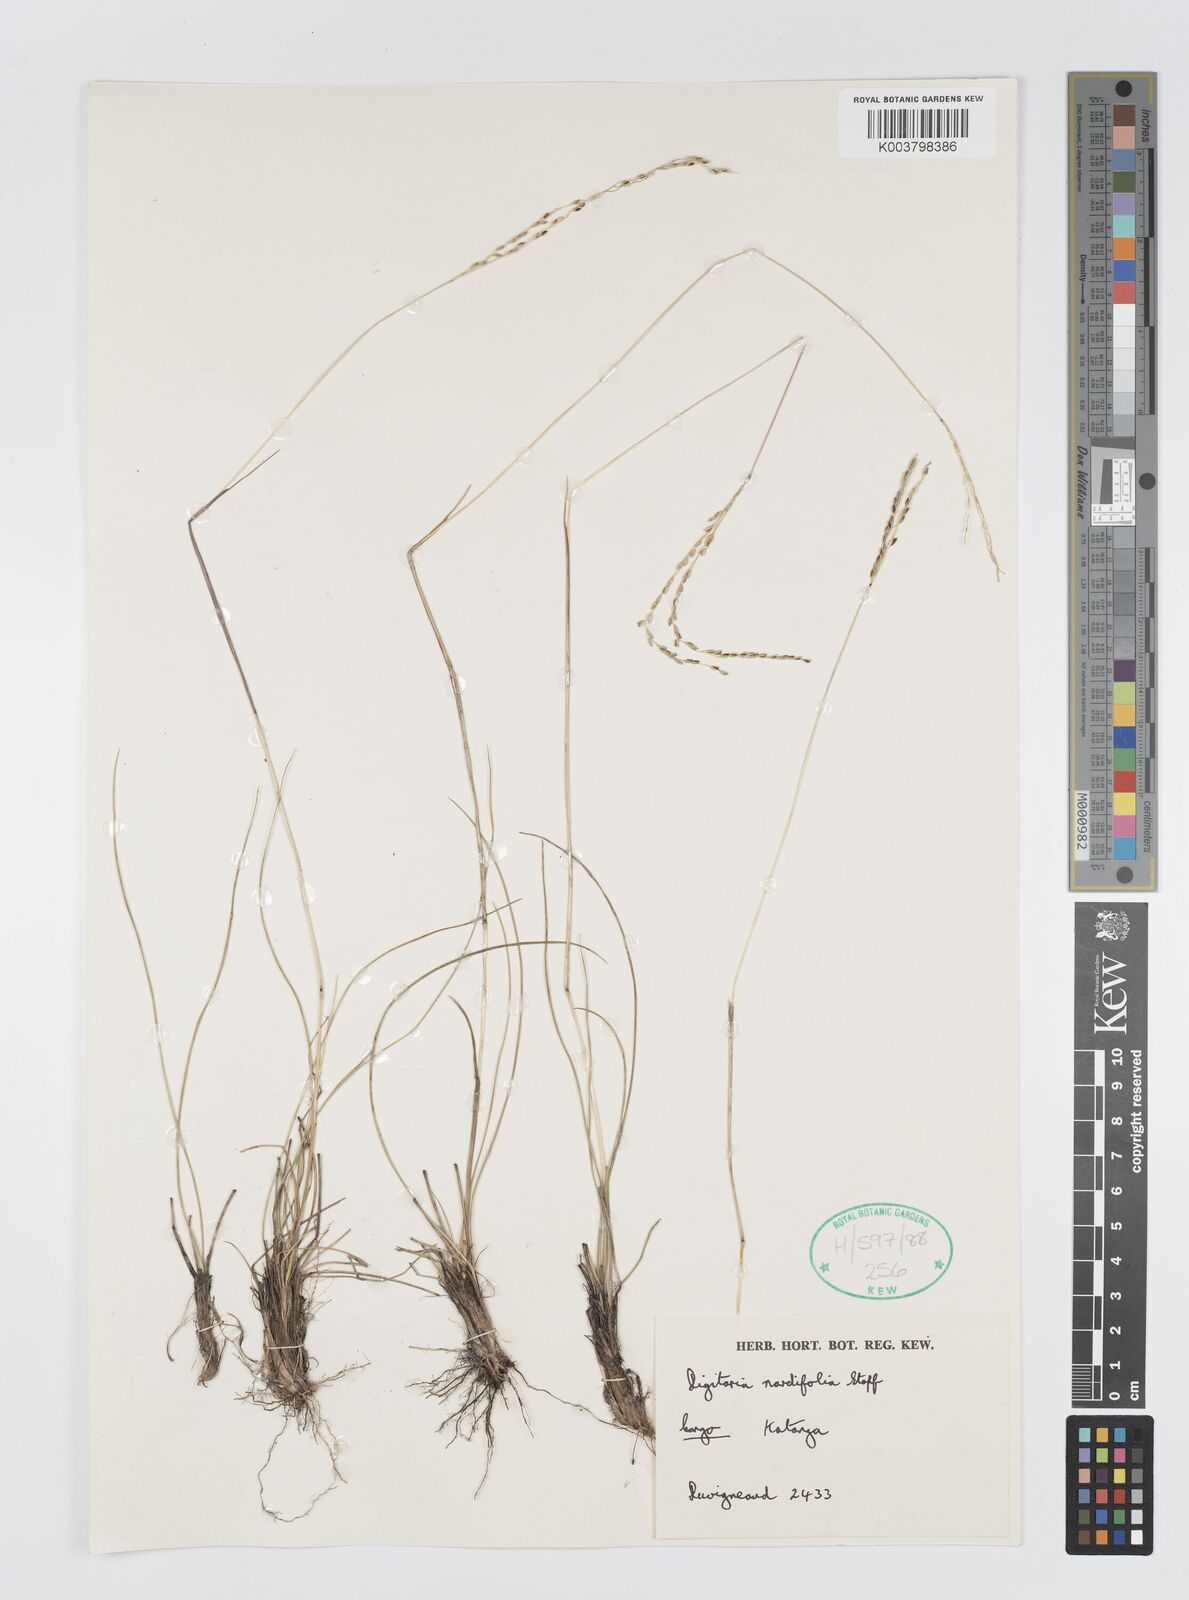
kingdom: Plantae
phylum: Tracheophyta
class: Liliopsida
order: Poales
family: Poaceae
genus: Digitaria
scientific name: Digitaria setifolia
